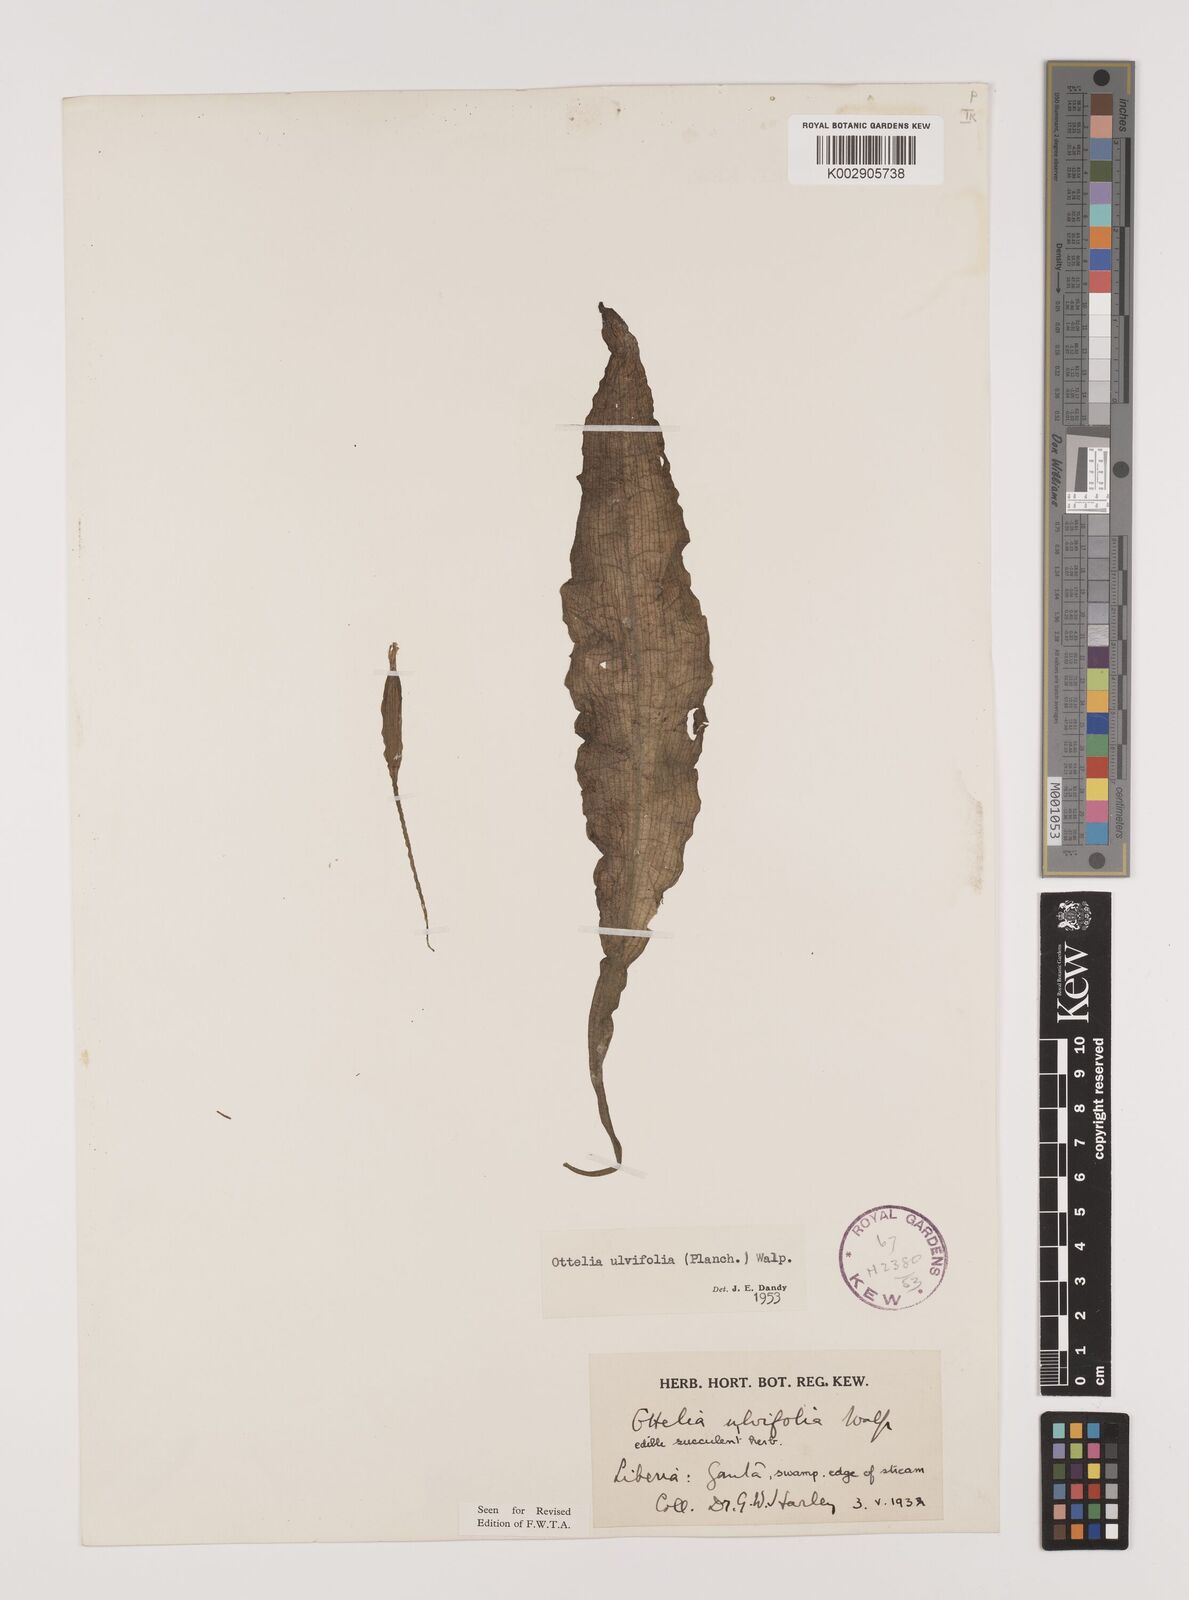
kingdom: Plantae
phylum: Tracheophyta
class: Liliopsida
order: Alismatales
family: Hydrocharitaceae
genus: Ottelia
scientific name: Ottelia ulvifolia
